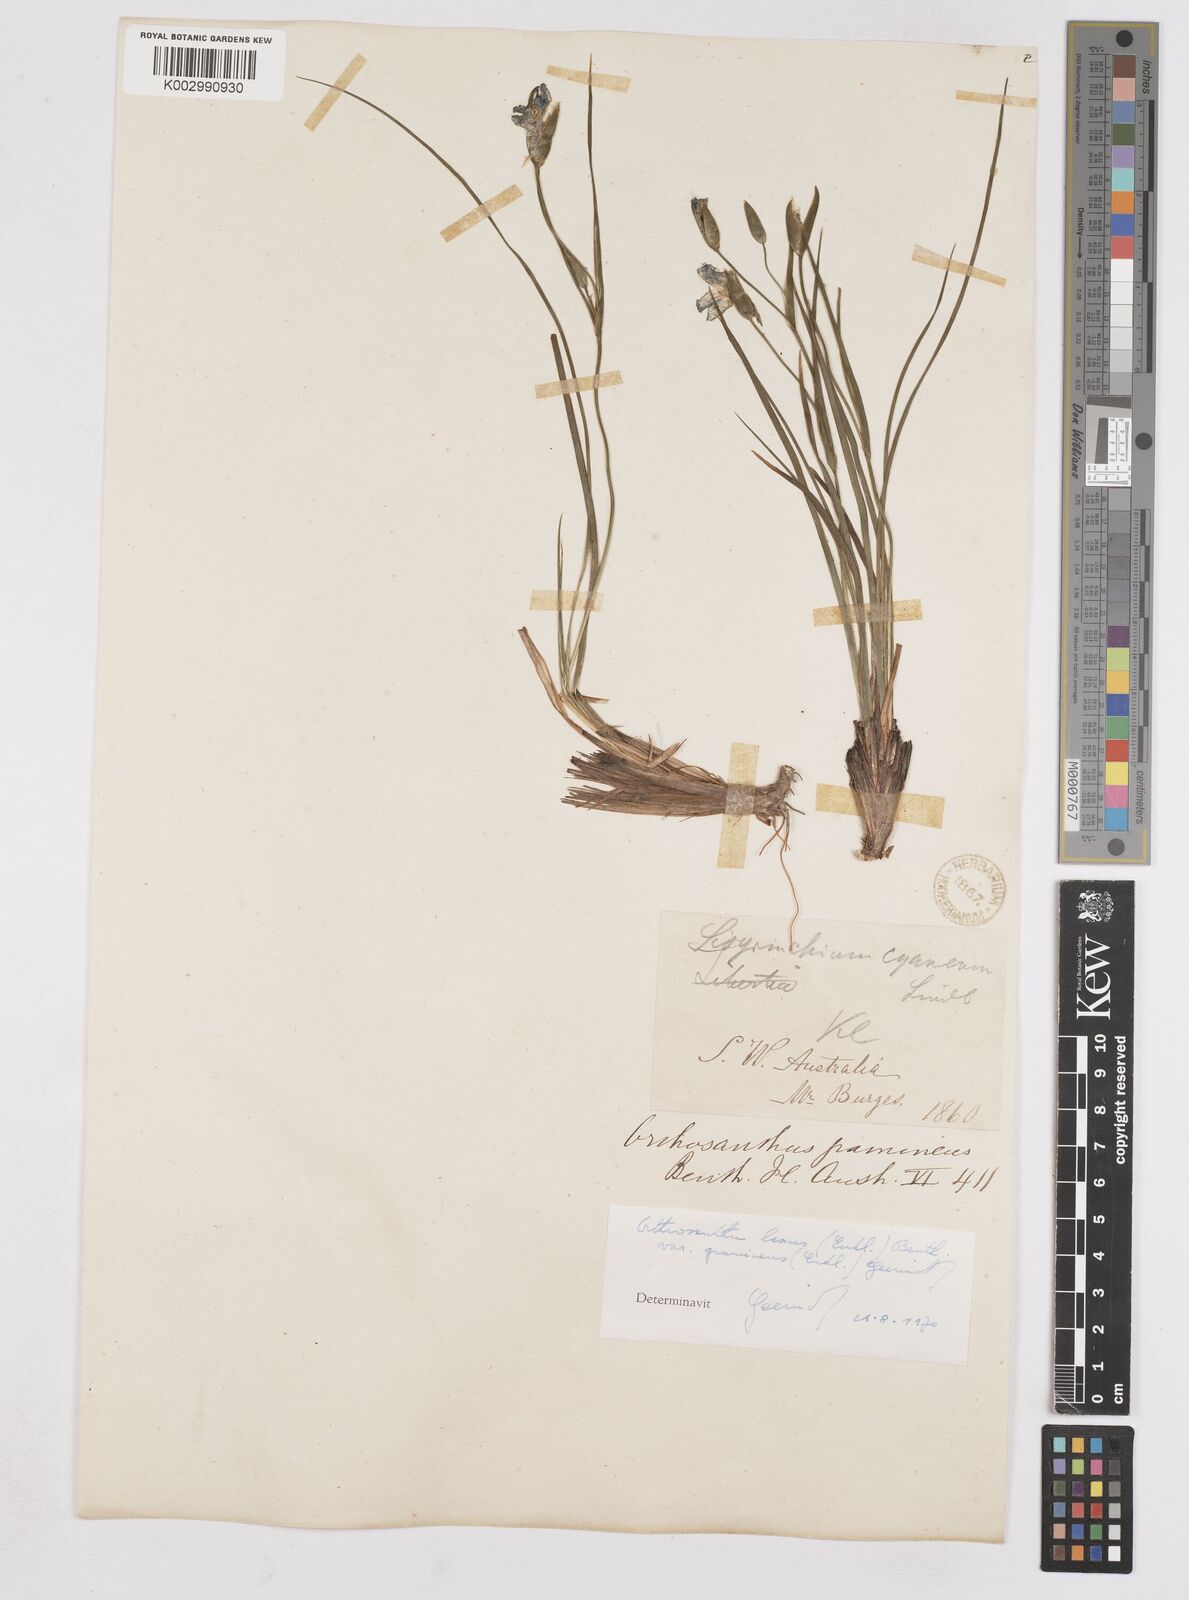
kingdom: Plantae
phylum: Tracheophyta
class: Liliopsida
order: Asparagales
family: Iridaceae
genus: Orthrosanthus
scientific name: Orthrosanthus laxus
